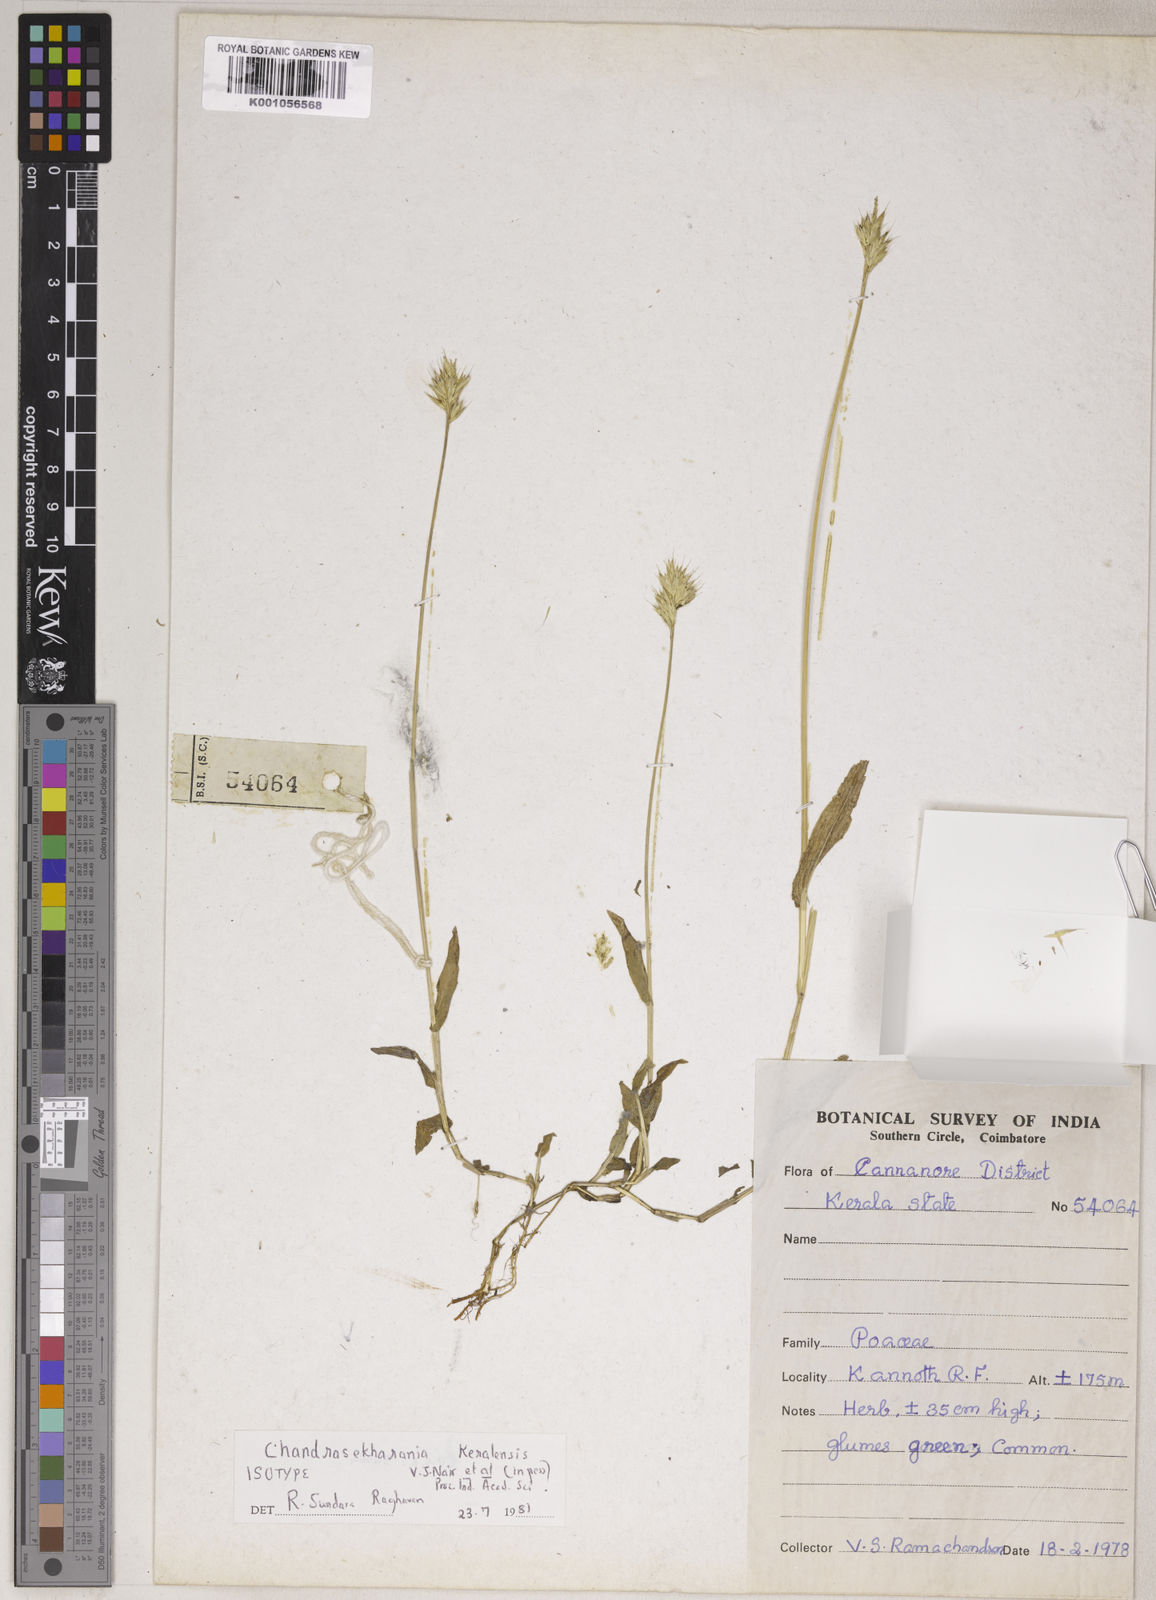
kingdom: Plantae
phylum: Tracheophyta
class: Liliopsida
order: Poales
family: Poaceae
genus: Chandrasekharania
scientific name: Chandrasekharania keralensis
